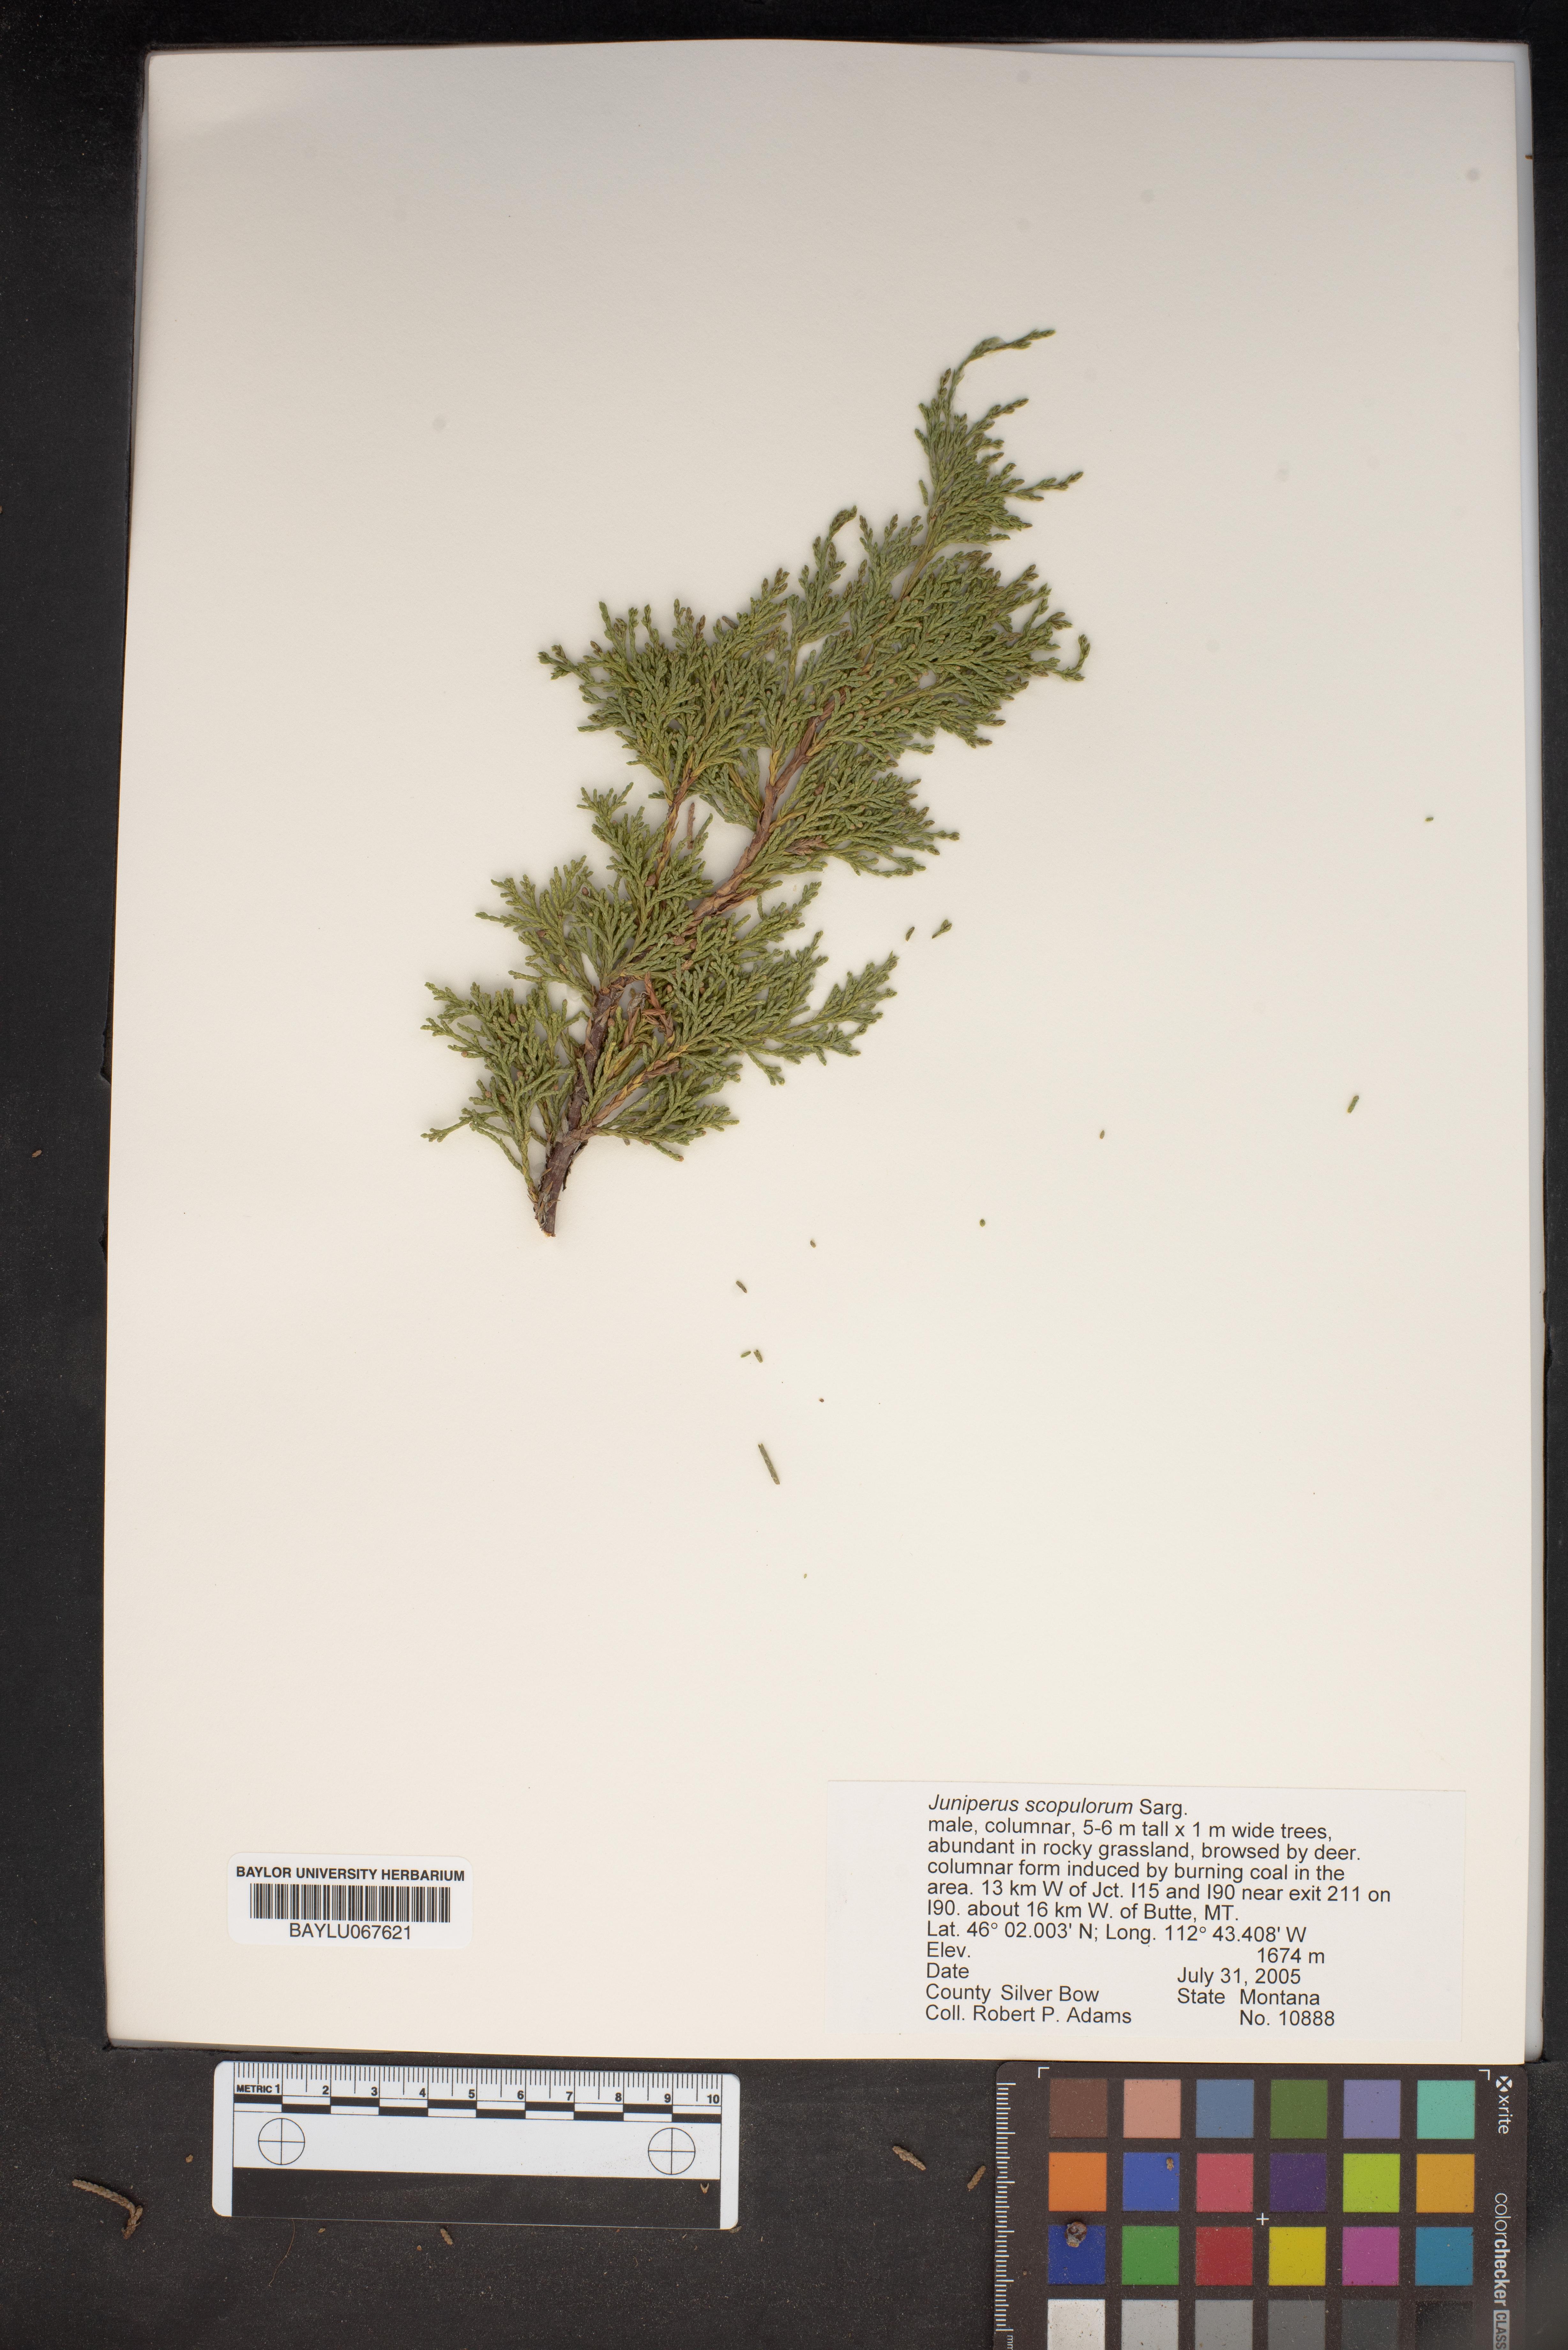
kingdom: Plantae
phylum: Tracheophyta
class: Pinopsida
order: Pinales
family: Cupressaceae
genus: Juniperus
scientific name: Juniperus scopulorum
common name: Rocky mountain juniper
